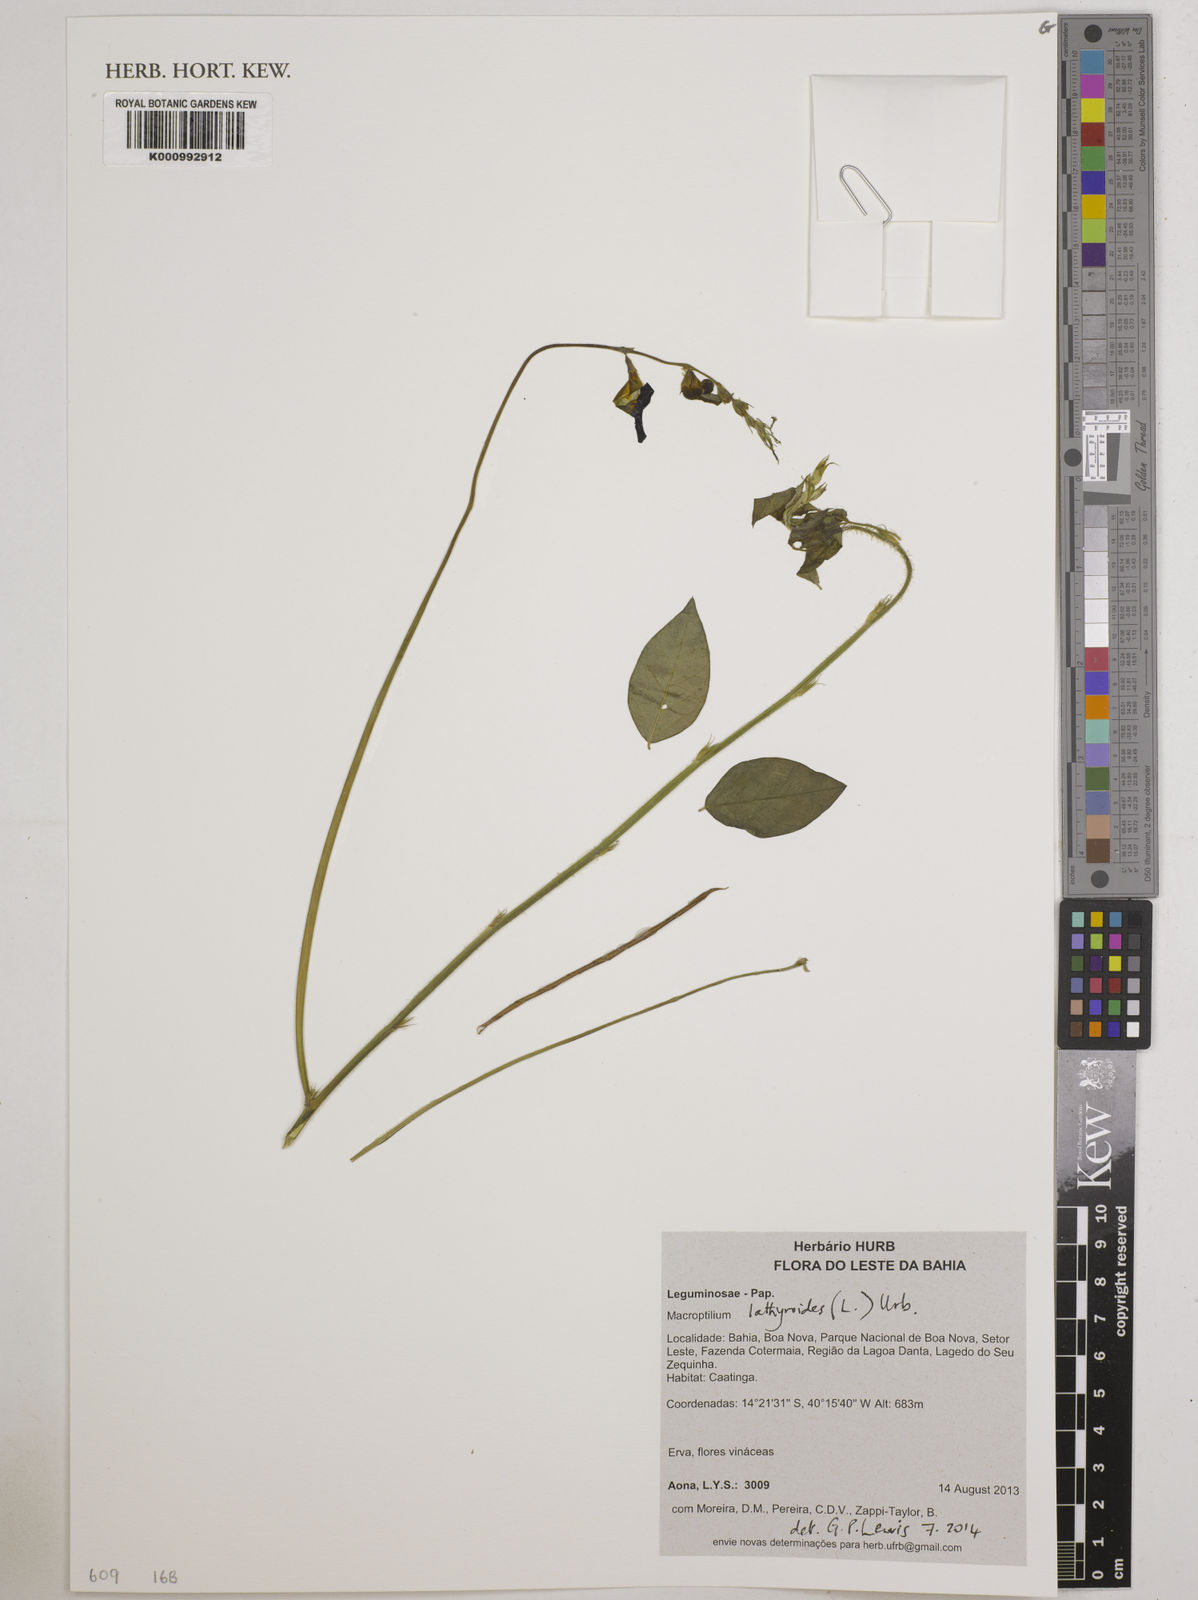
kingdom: Plantae
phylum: Tracheophyta
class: Magnoliopsida
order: Fabales
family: Fabaceae
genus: Macroptilium
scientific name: Macroptilium lathyroides
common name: Wild bushbean
